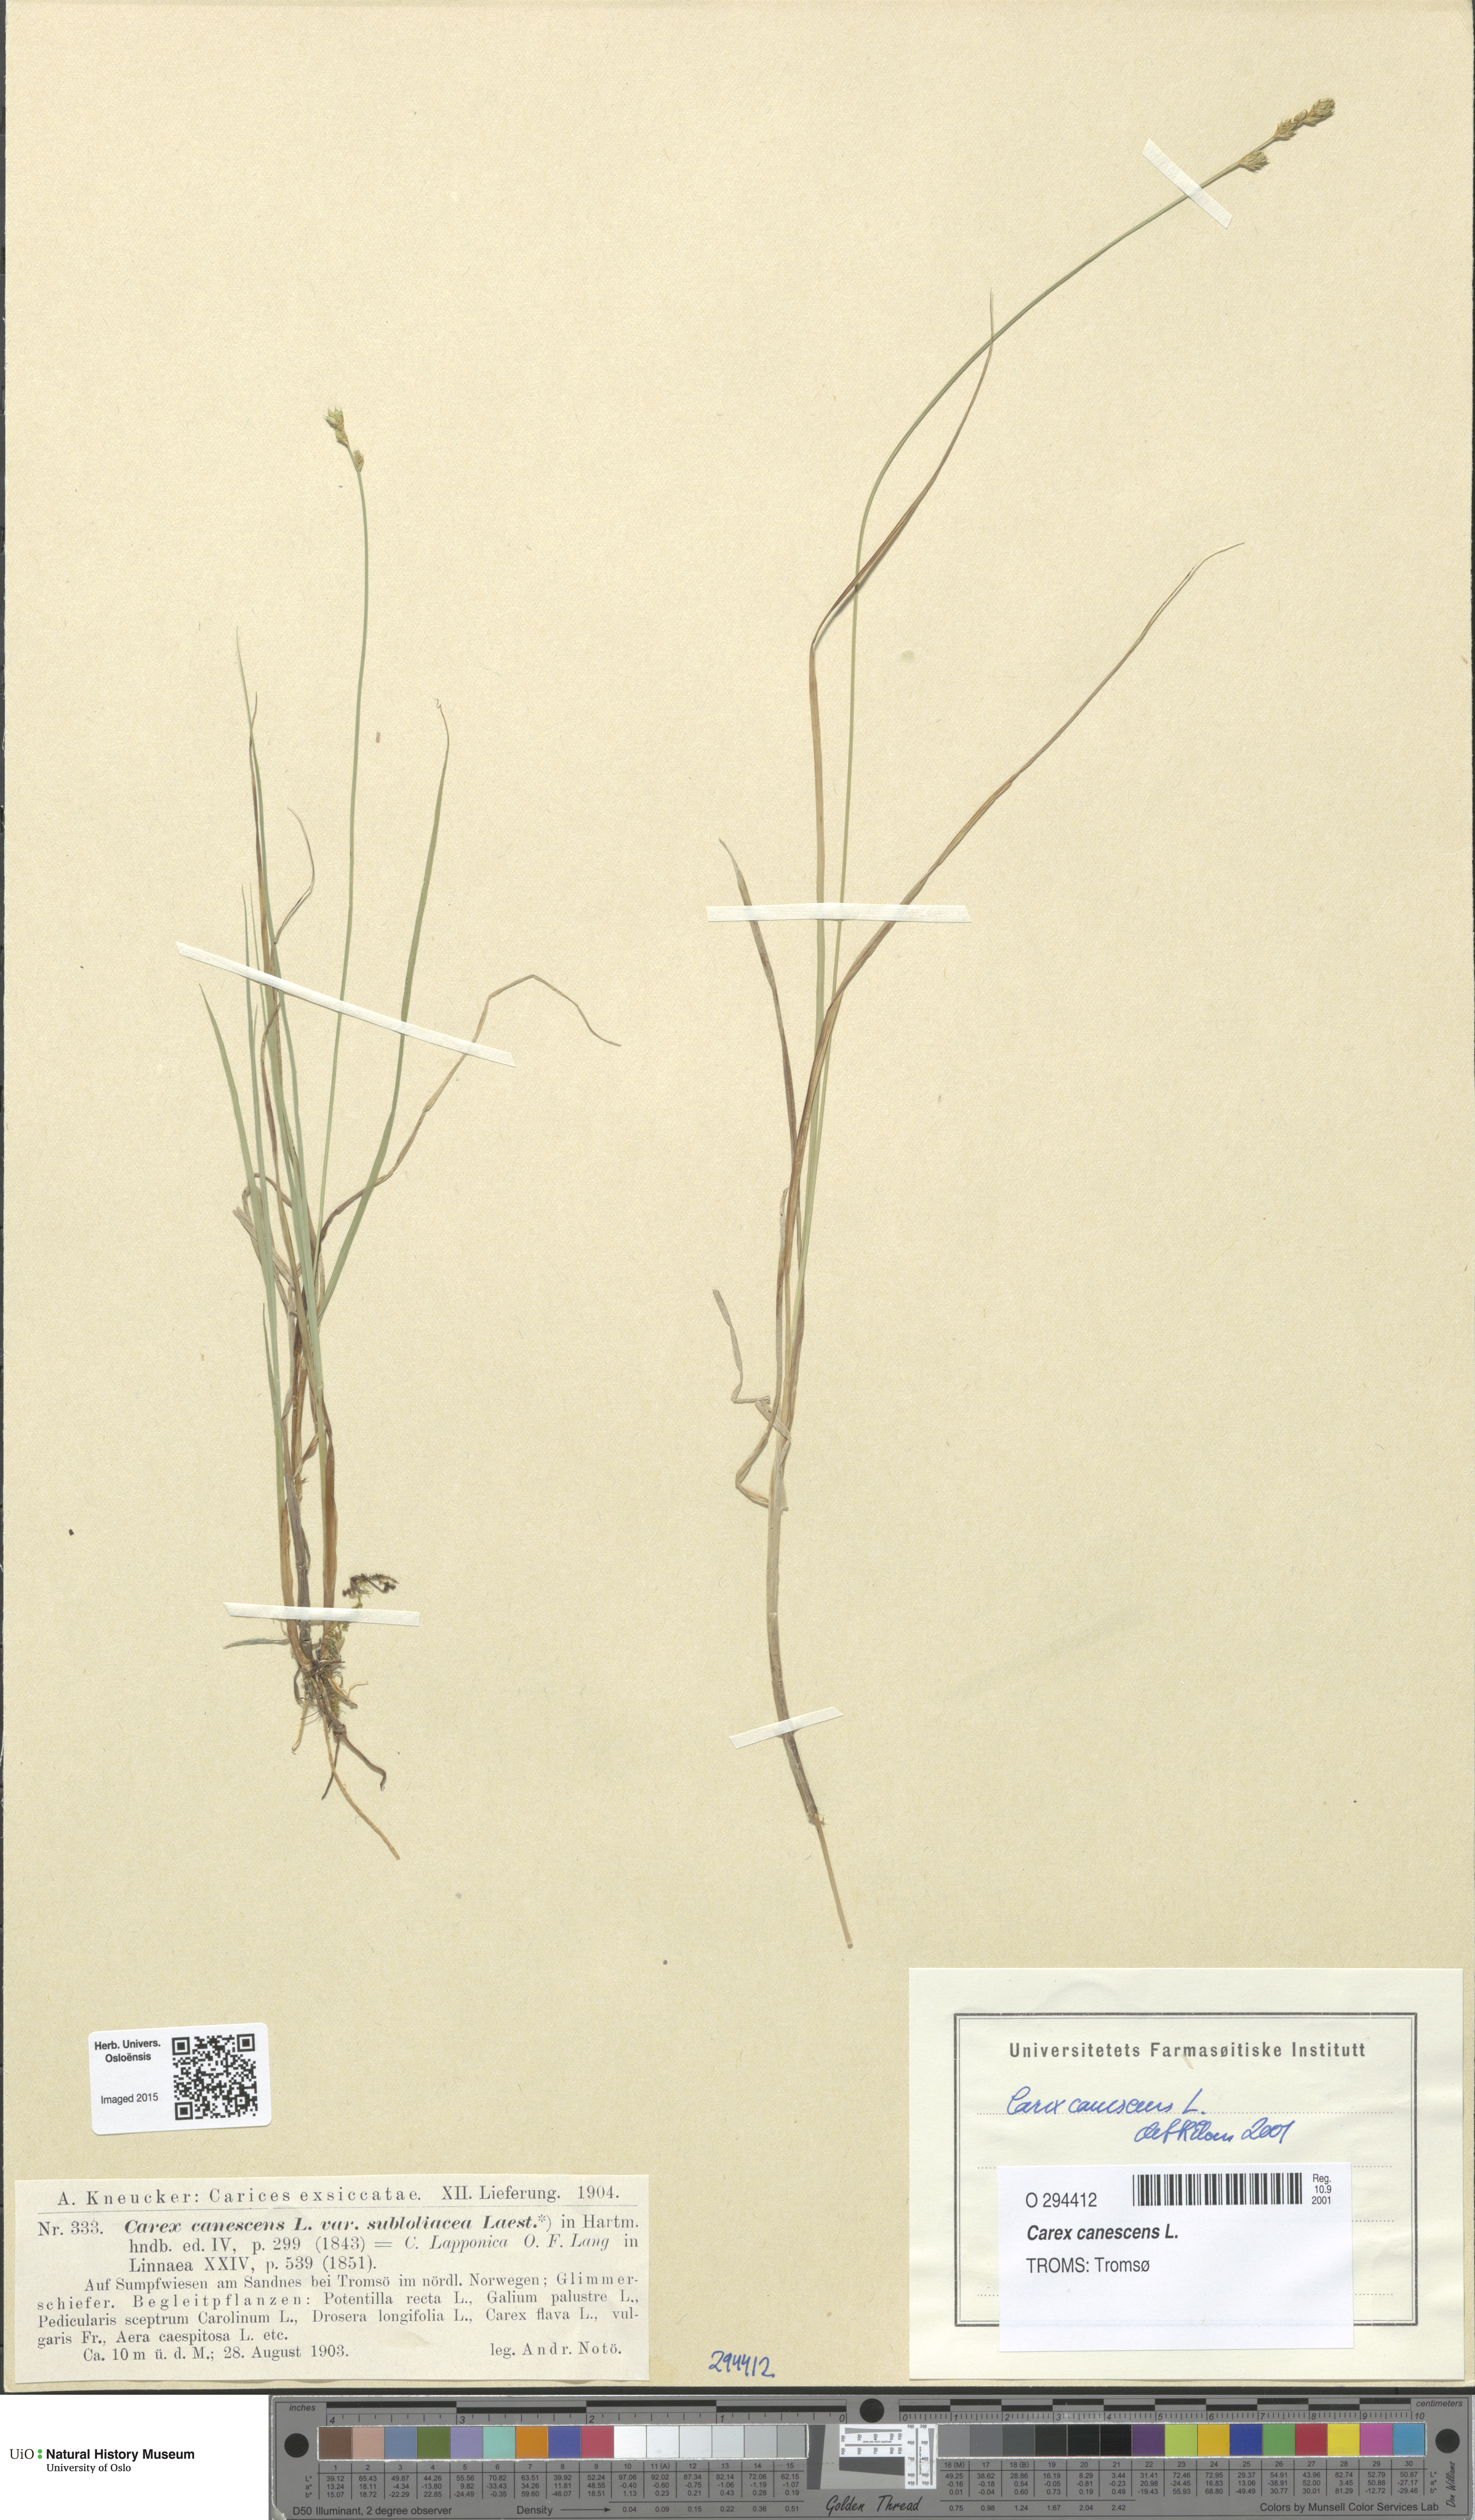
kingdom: Plantae
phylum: Tracheophyta
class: Liliopsida
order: Poales
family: Cyperaceae
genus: Carex
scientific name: Carex canescens
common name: White sedge
